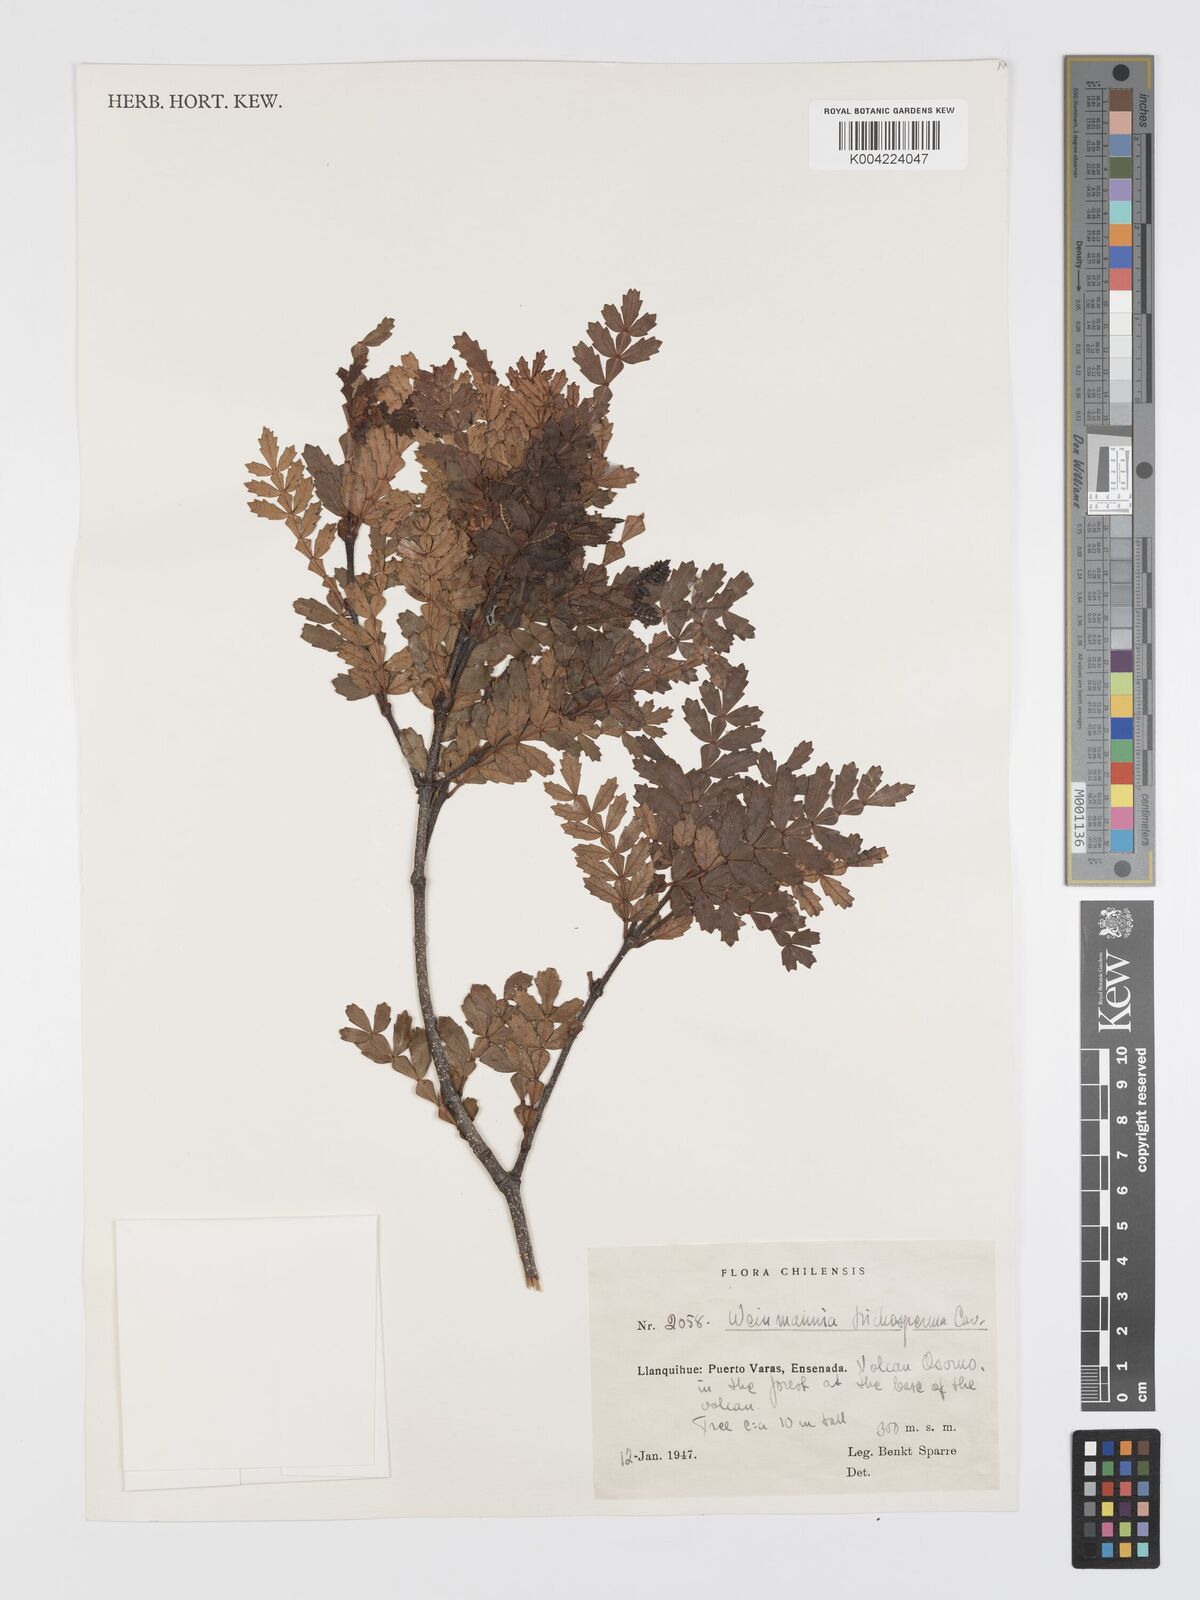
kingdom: Plantae
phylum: Tracheophyta
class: Magnoliopsida
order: Oxalidales
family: Cunoniaceae
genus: Weinmannia
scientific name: Weinmannia trichosperma
